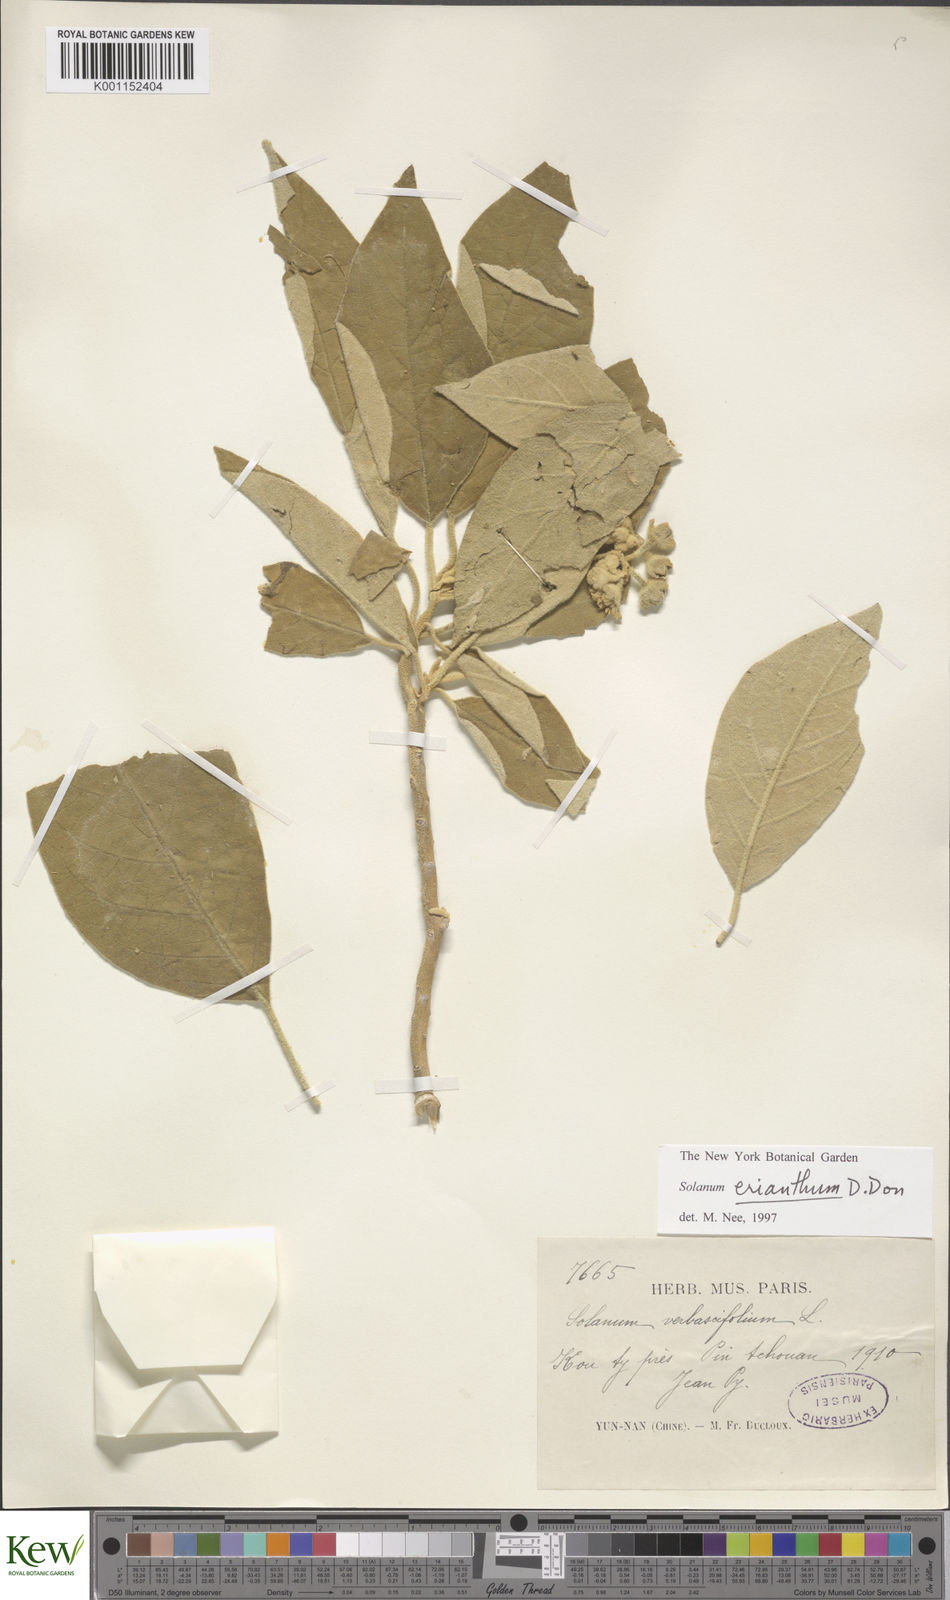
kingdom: Plantae
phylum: Tracheophyta
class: Magnoliopsida
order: Solanales
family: Solanaceae
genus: Solanum
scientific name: Solanum donianum
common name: Mullein nightshade
